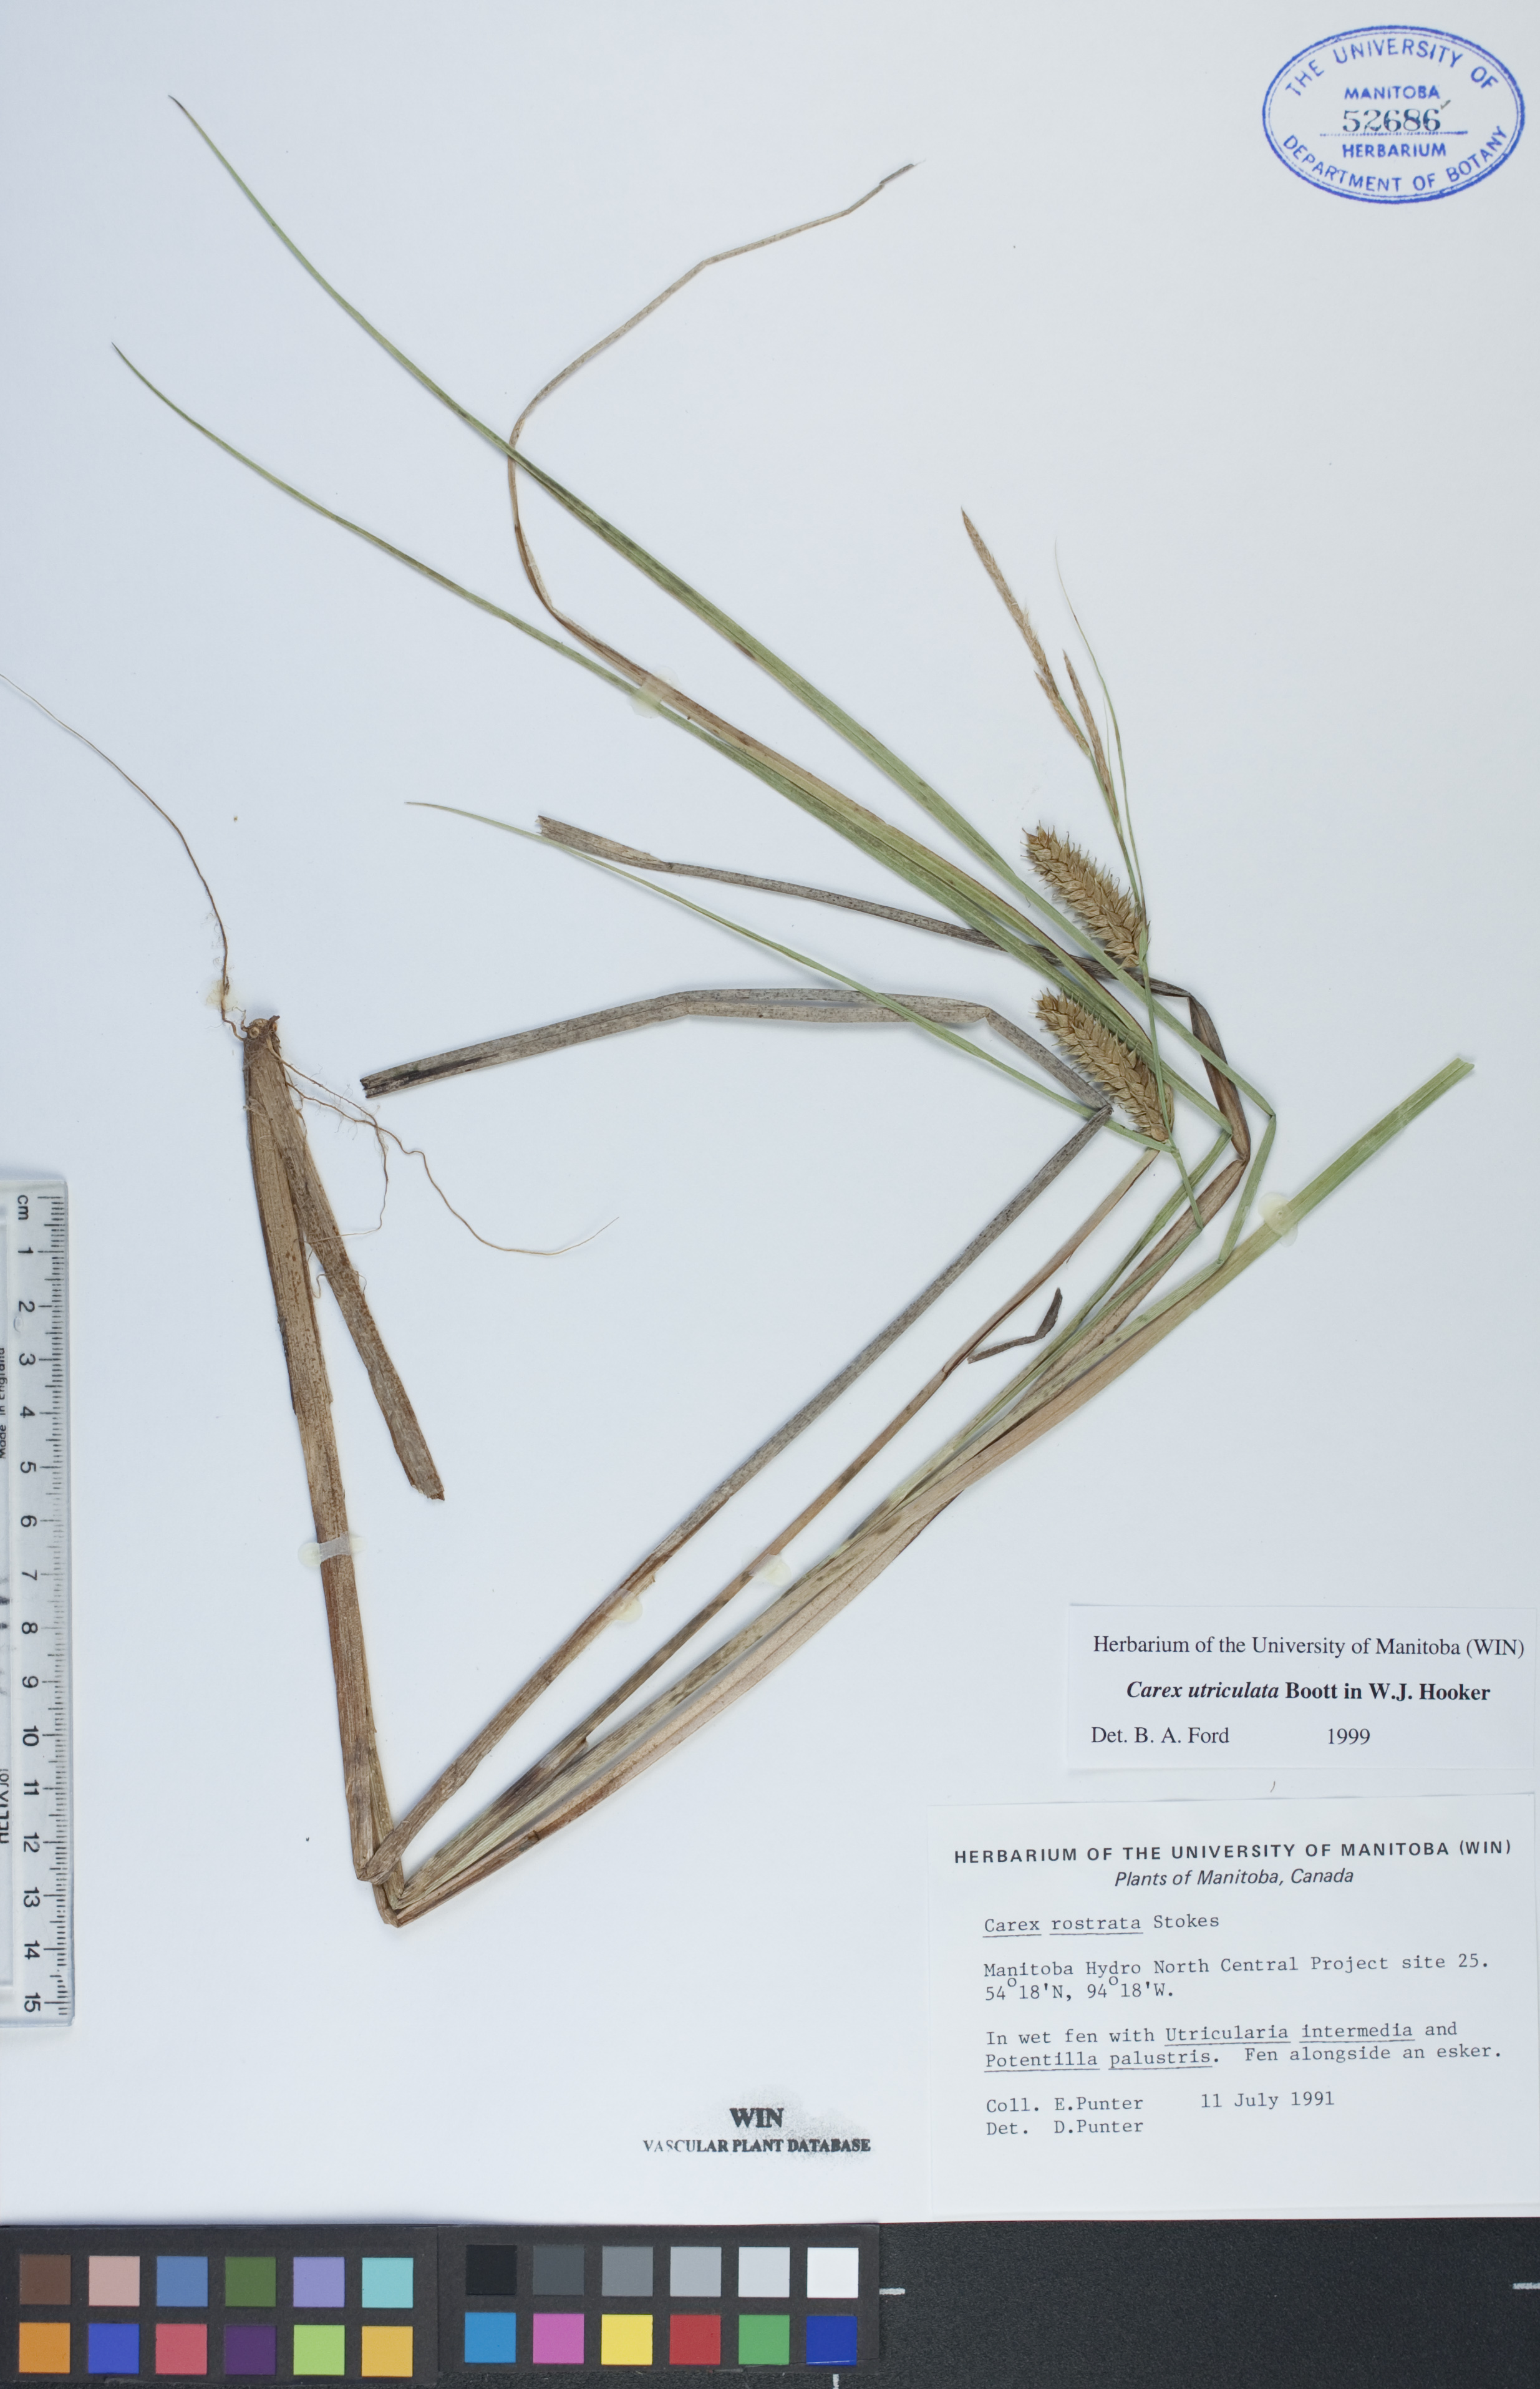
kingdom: Plantae
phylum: Tracheophyta
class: Liliopsida
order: Poales
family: Cyperaceae
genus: Carex
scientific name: Carex utriculata
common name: Beaked sedge
